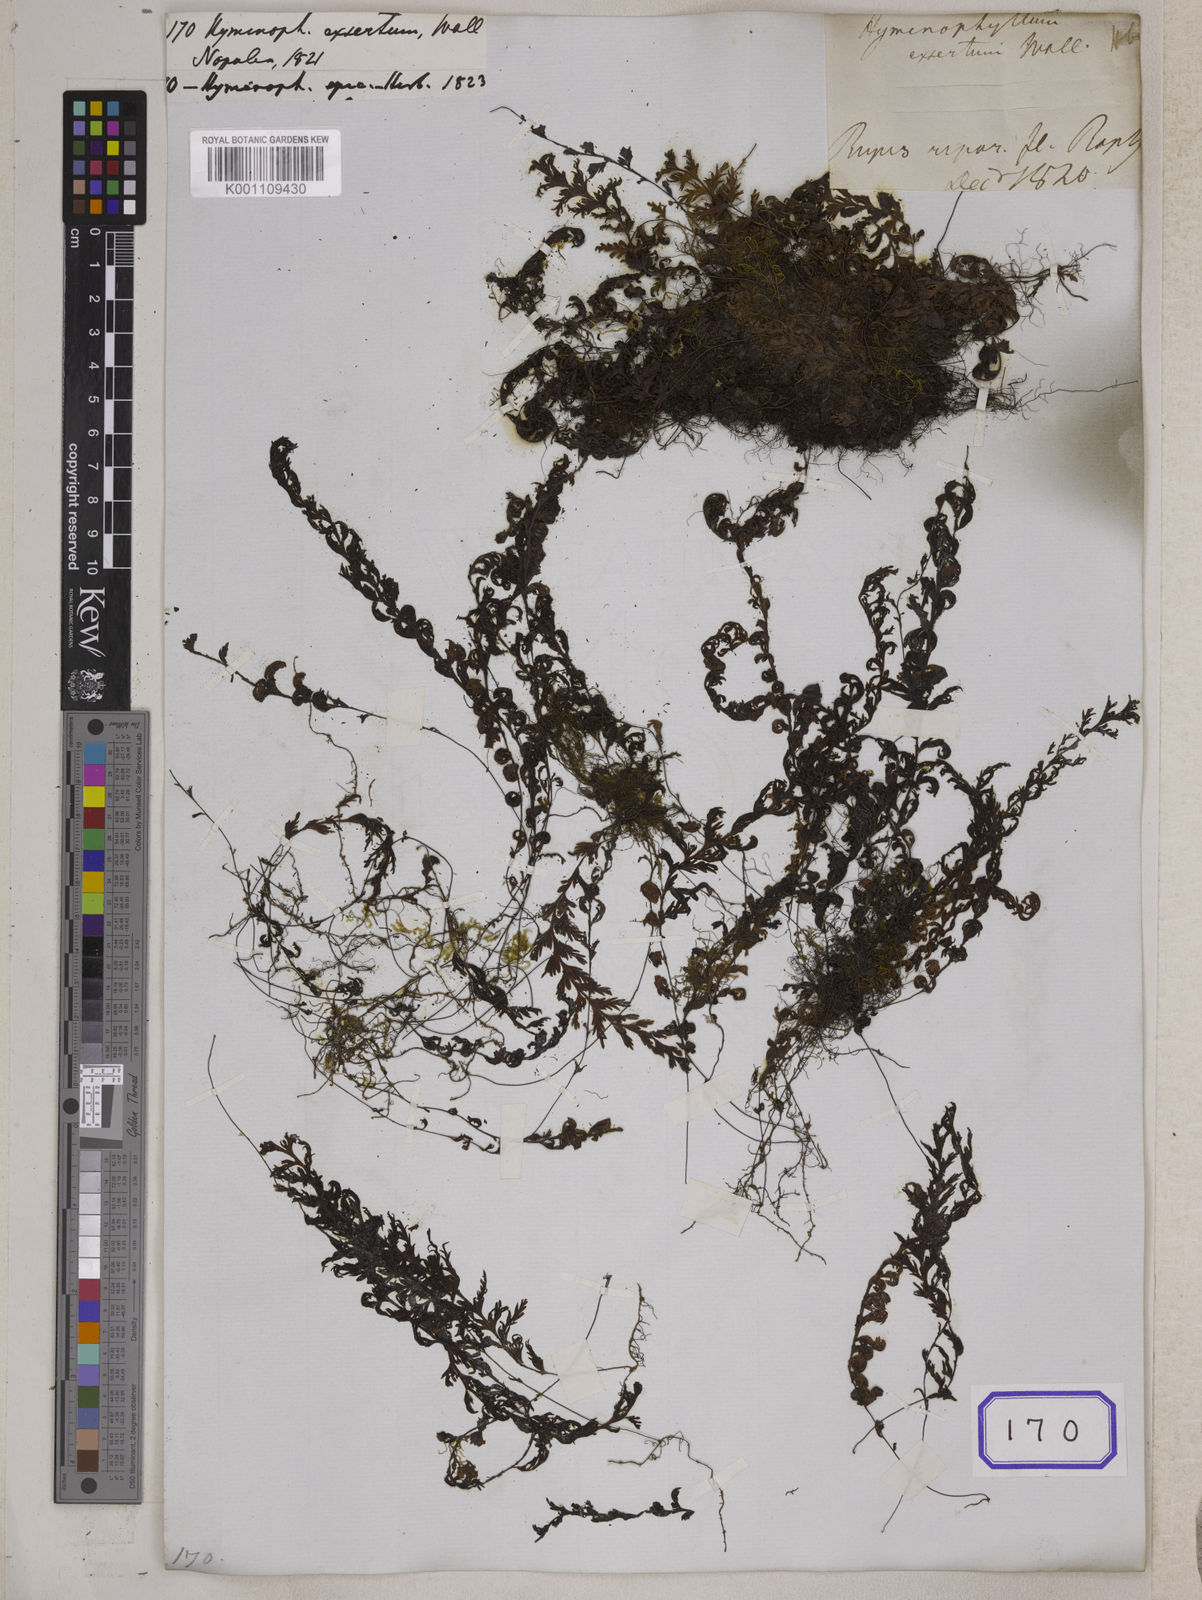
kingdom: Plantae
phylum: Tracheophyta
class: Polypodiopsida
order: Hymenophyllales
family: Hymenophyllaceae
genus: Hymenophyllum
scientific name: Hymenophyllum exsertum
